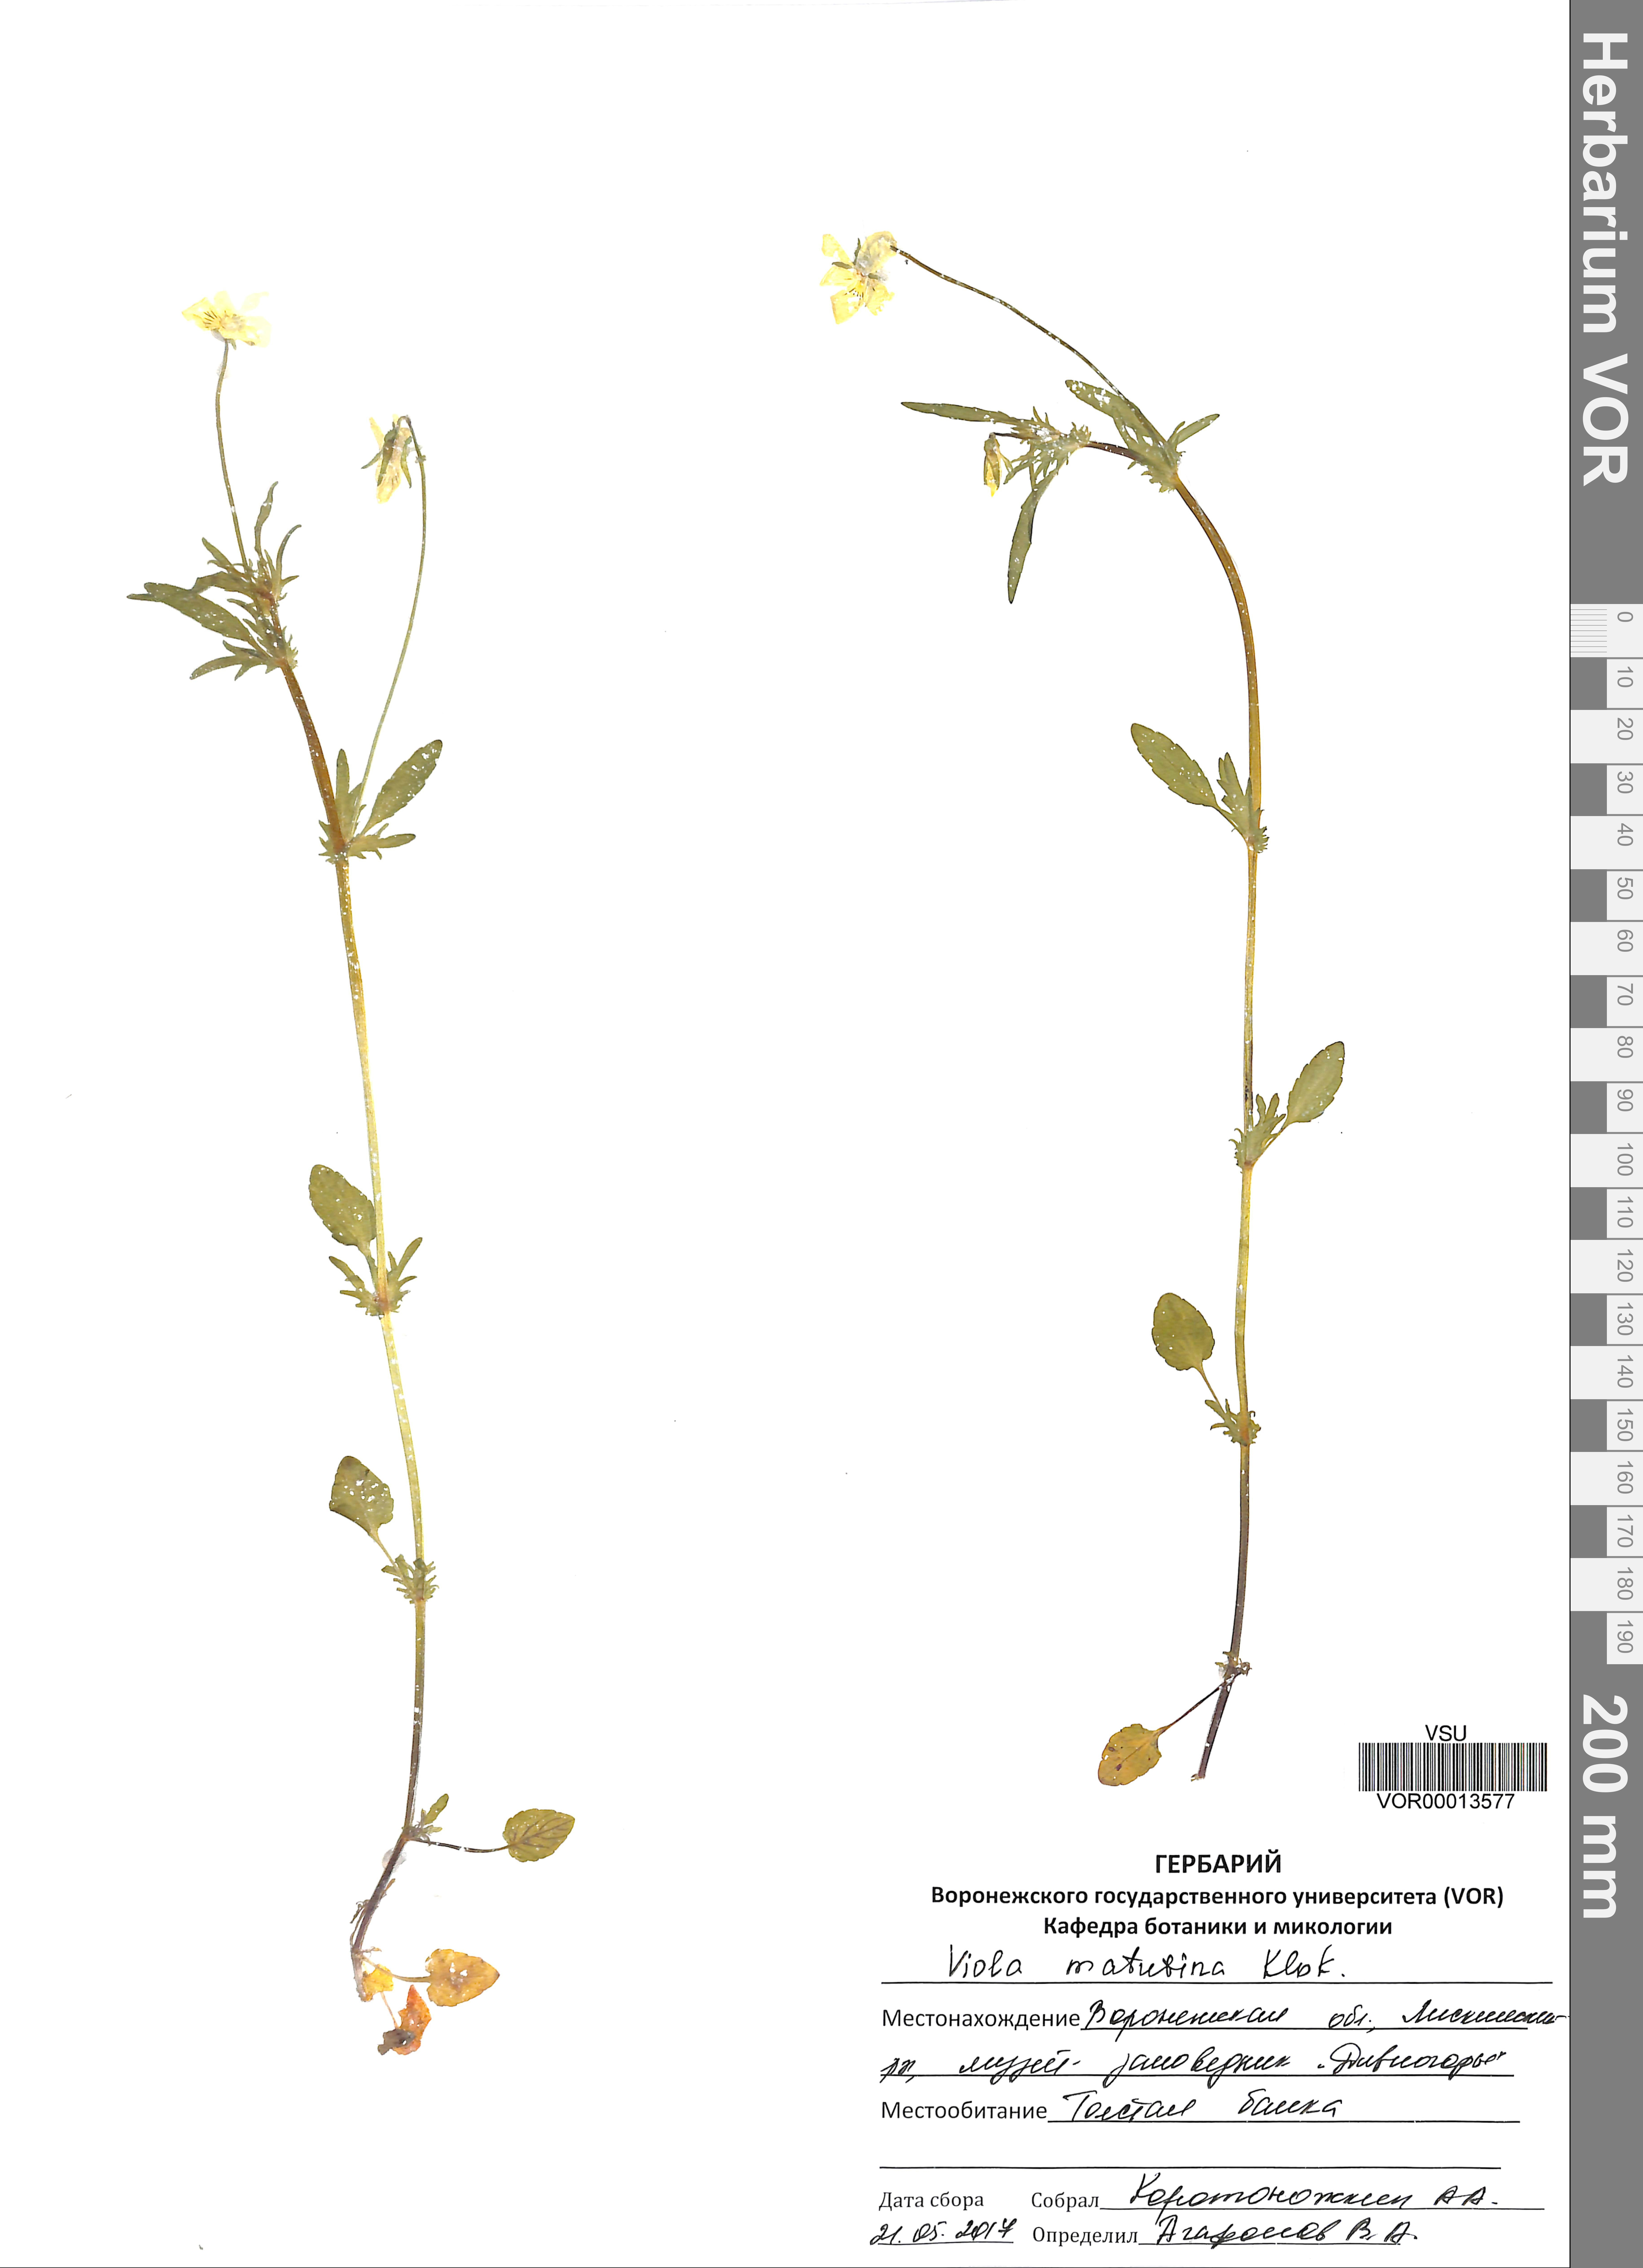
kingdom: Plantae
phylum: Tracheophyta
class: Magnoliopsida
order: Malpighiales
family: Violaceae
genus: Viola
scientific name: Viola tricolor
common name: Pansy
